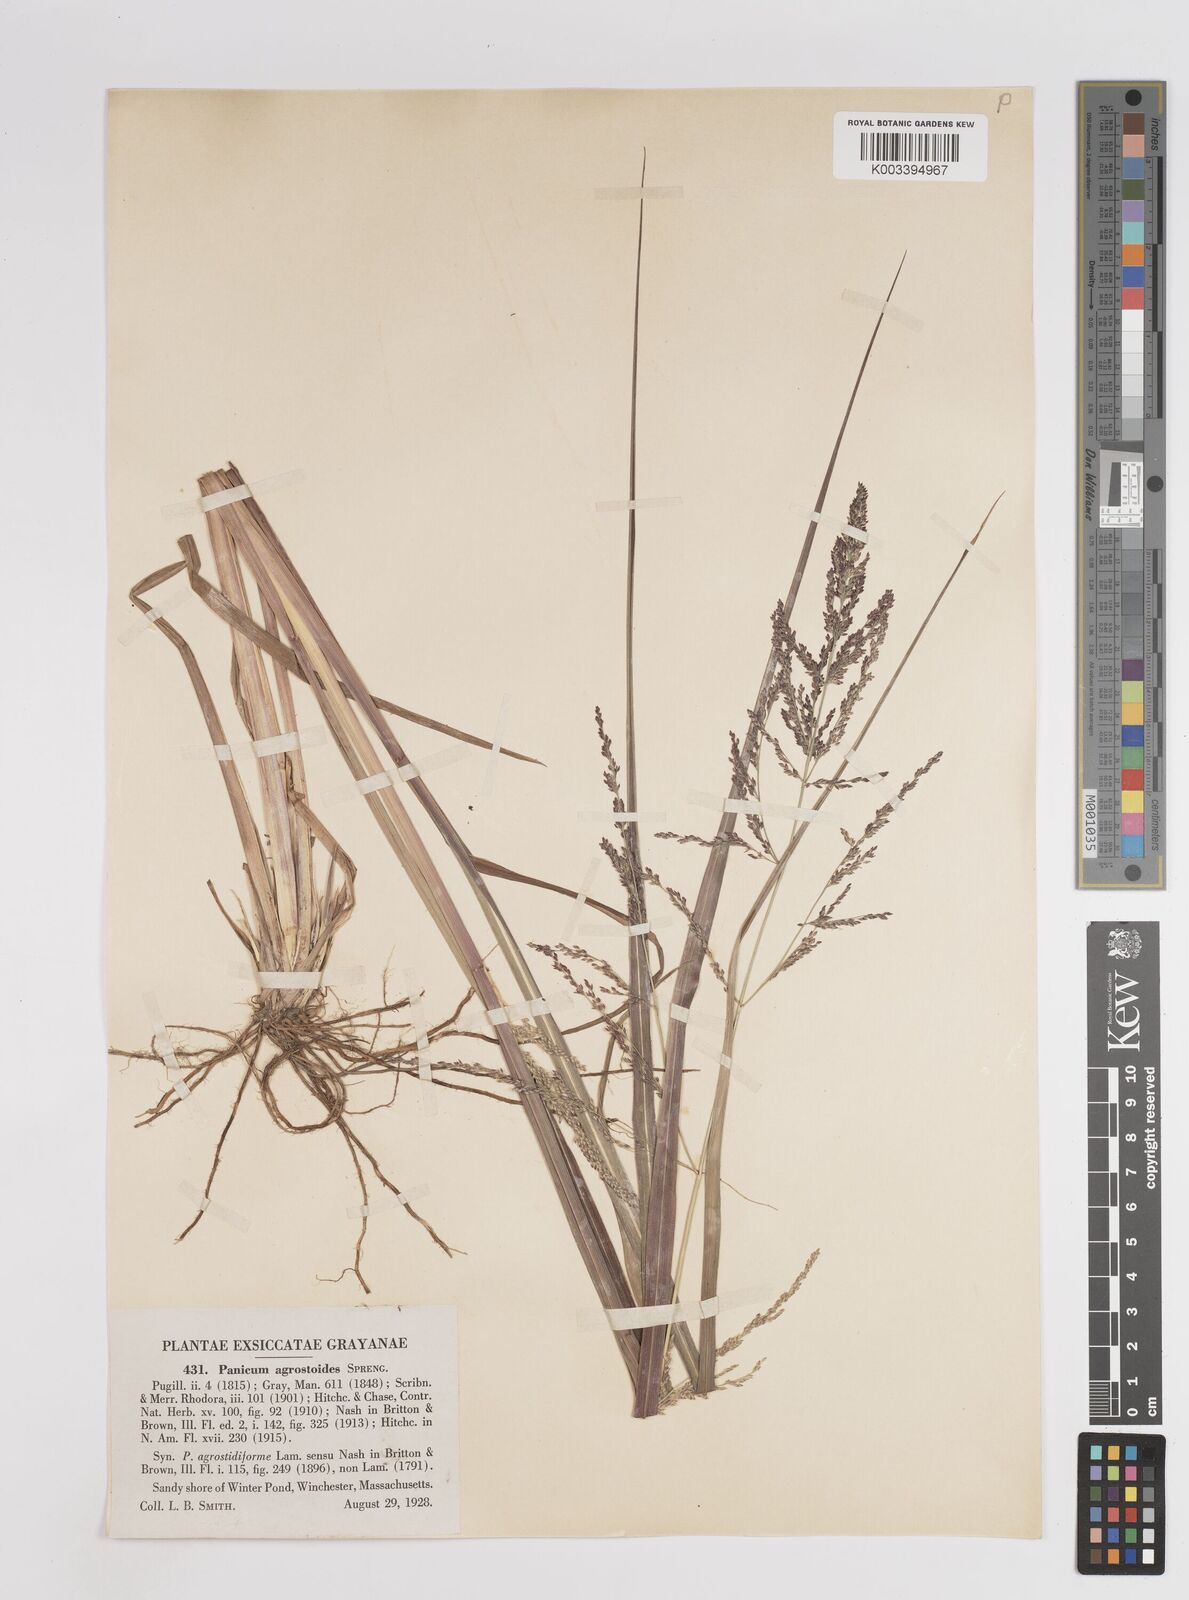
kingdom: Plantae
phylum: Tracheophyta
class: Liliopsida
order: Poales
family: Poaceae
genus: Steinchisma
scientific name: Steinchisma laxum
